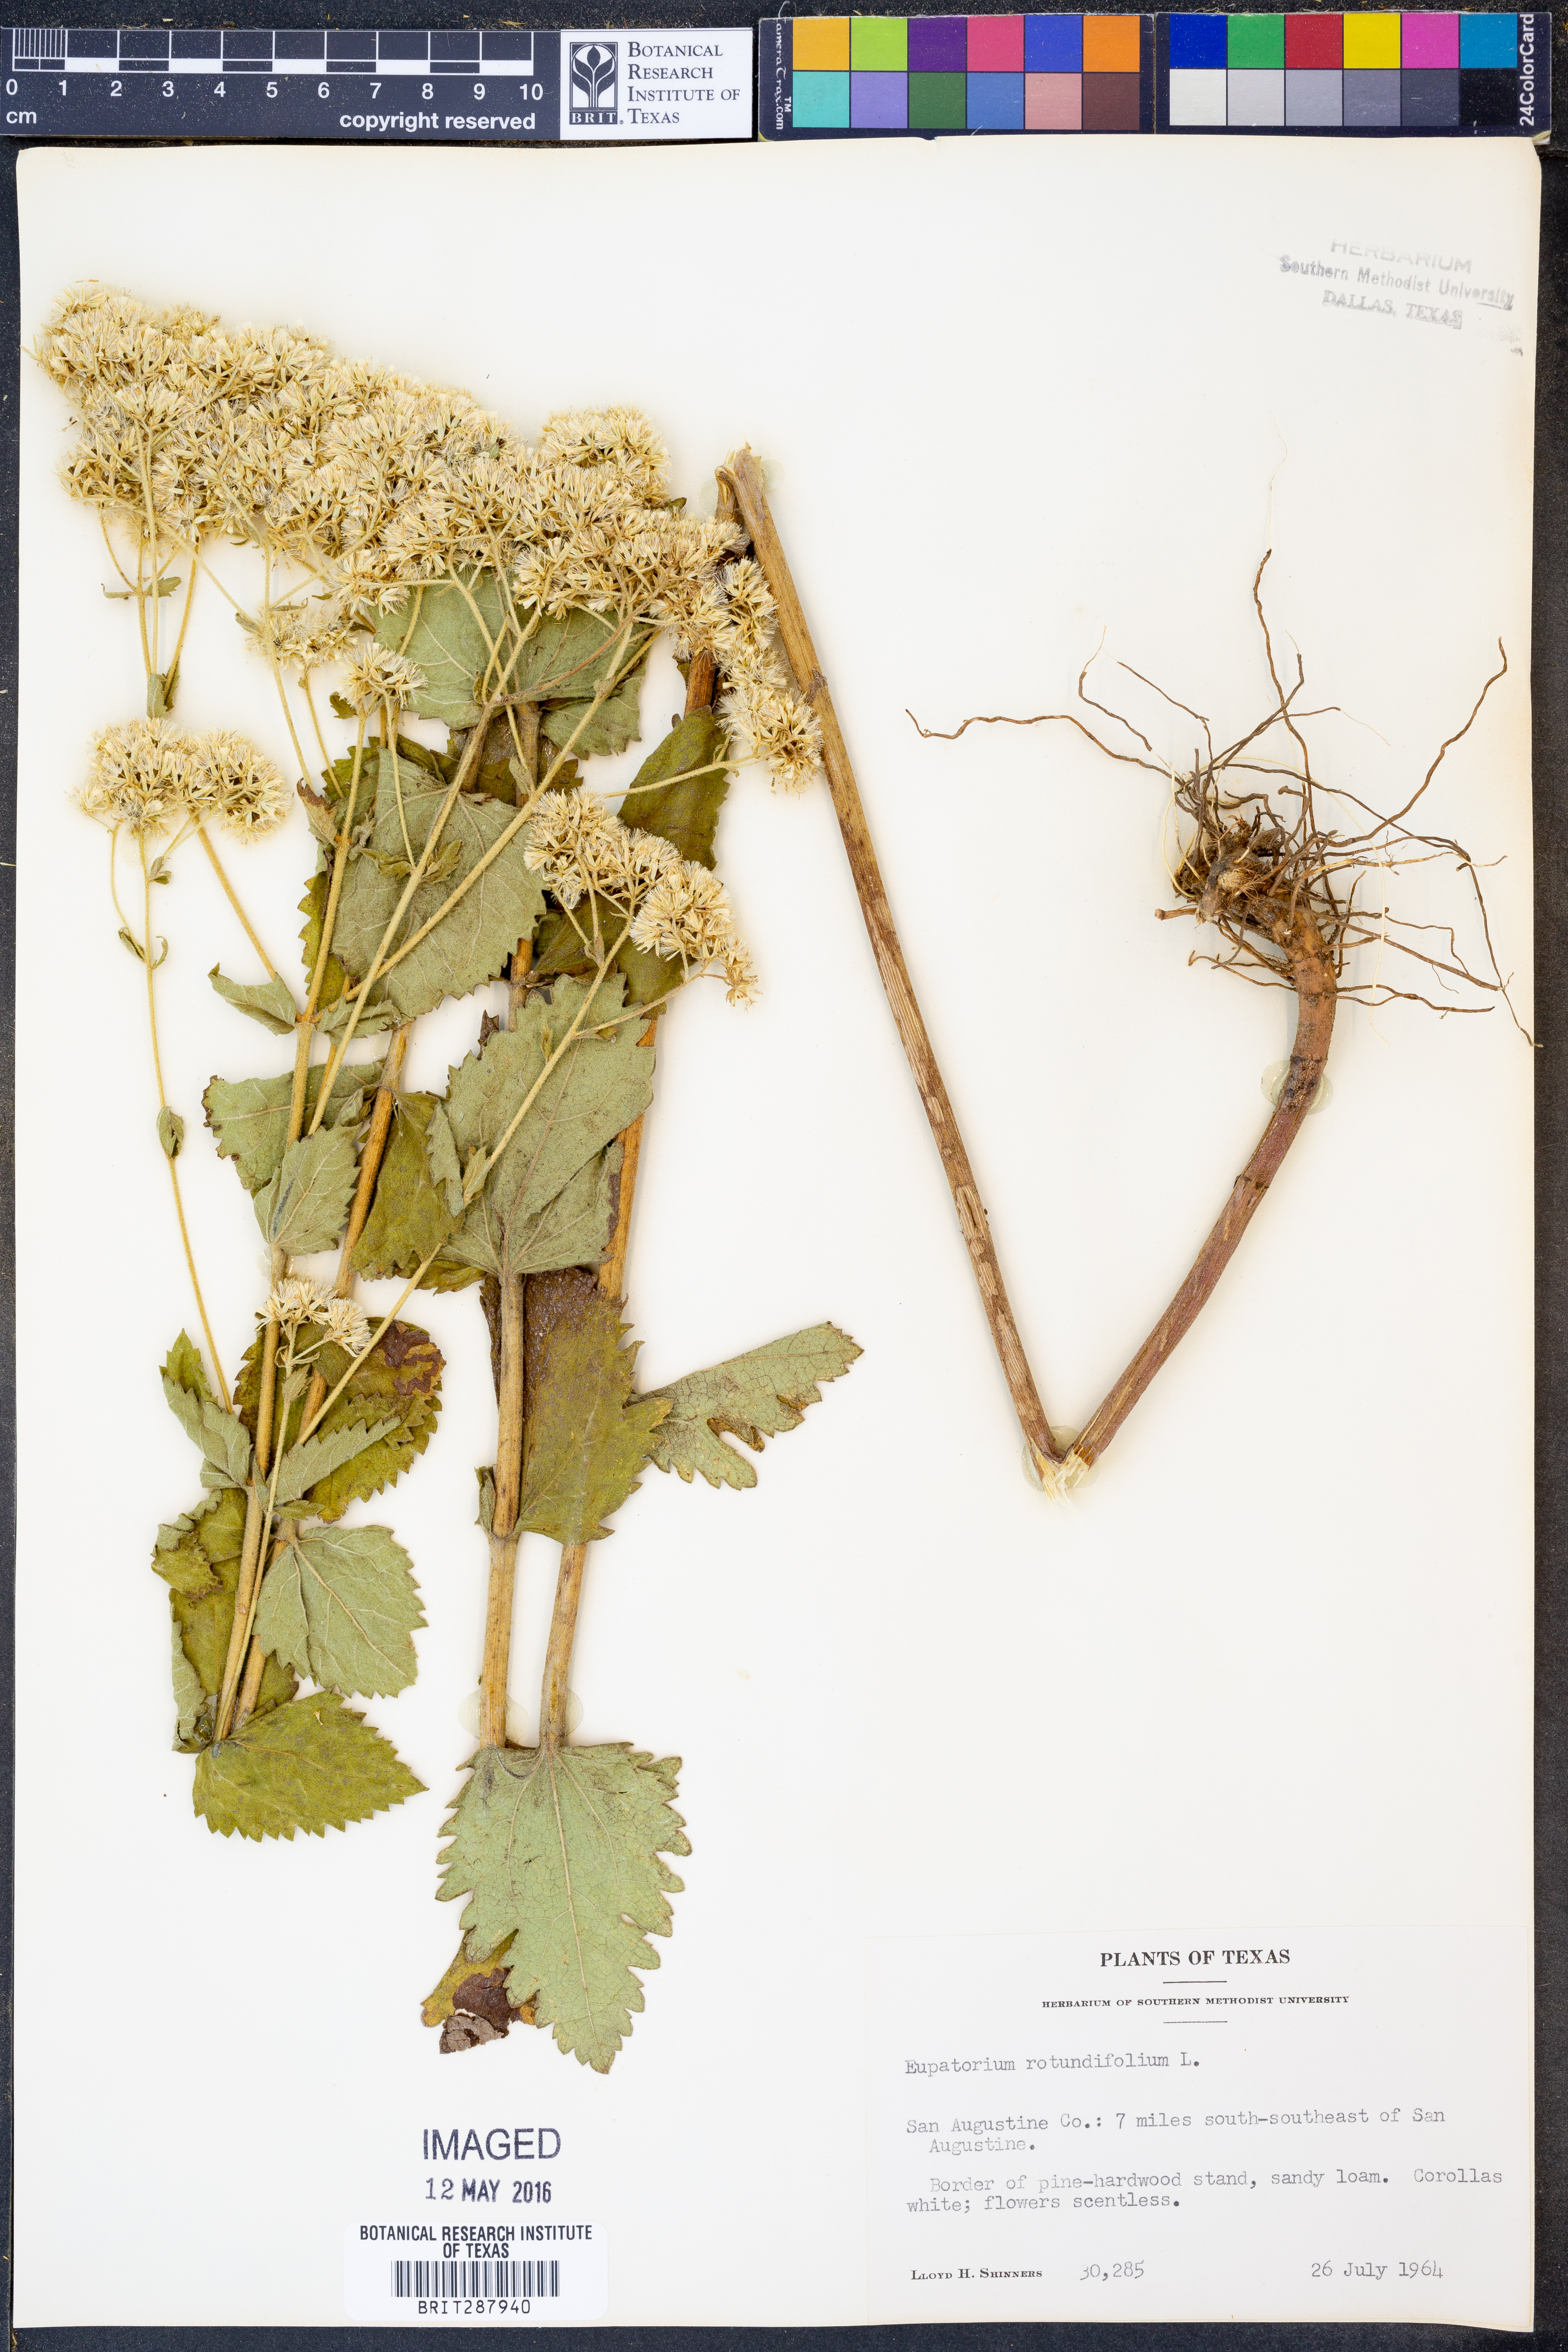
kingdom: Plantae
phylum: Tracheophyta
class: Magnoliopsida
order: Asterales
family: Asteraceae
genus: Eupatorium
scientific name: Eupatorium rotundifolium
